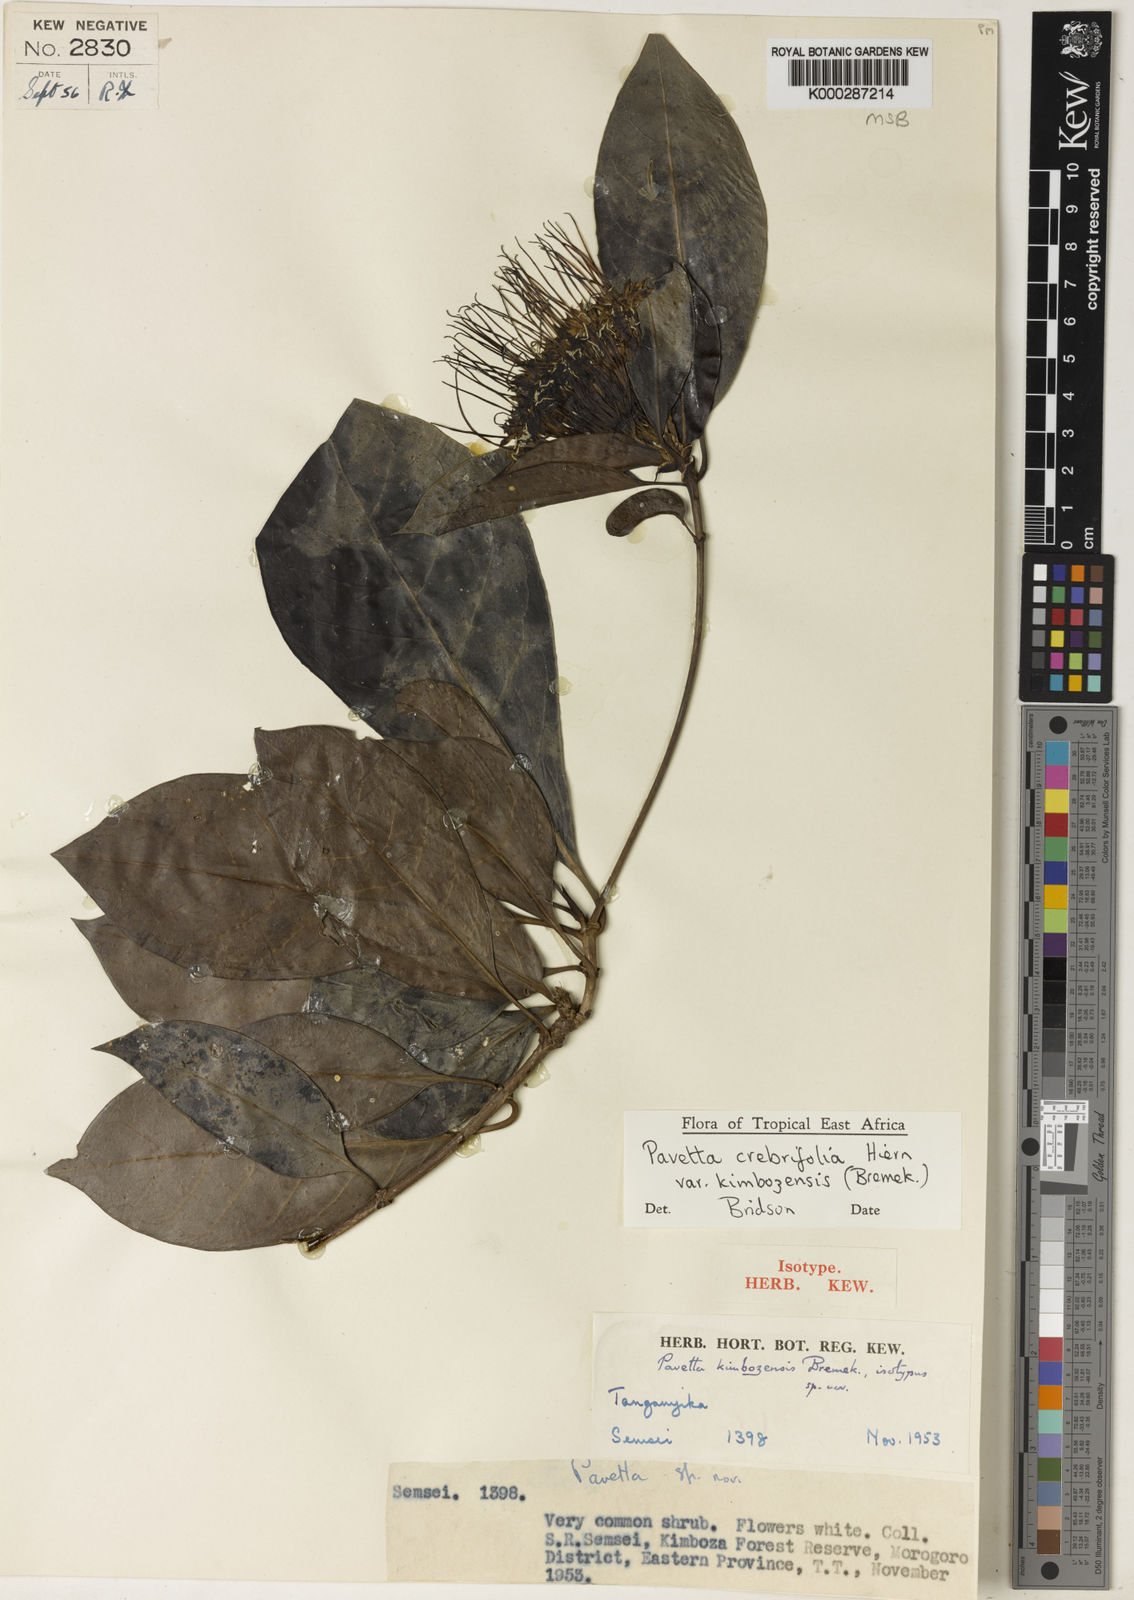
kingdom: Plantae
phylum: Tracheophyta
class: Magnoliopsida
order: Gentianales
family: Rubiaceae
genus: Pavetta
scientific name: Pavetta crebrifolia
